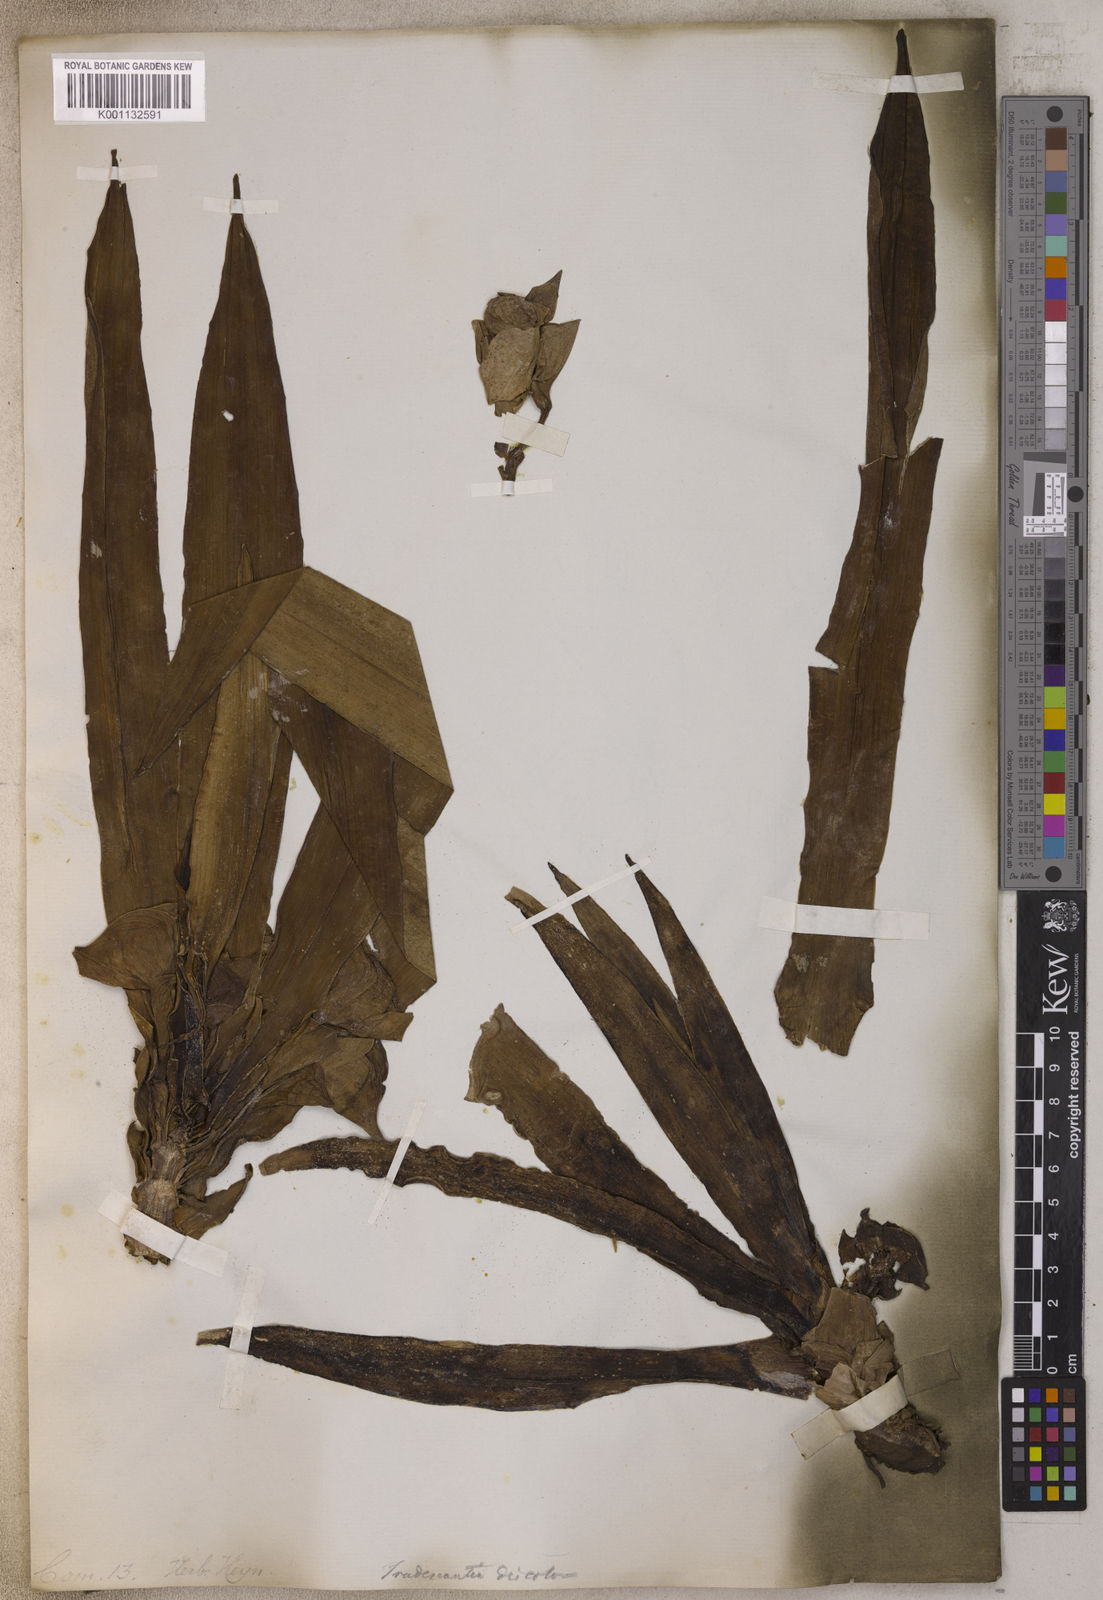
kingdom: Plantae
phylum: Tracheophyta
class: Liliopsida
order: Commelinales
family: Commelinaceae
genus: Tradescantia
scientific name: Tradescantia
